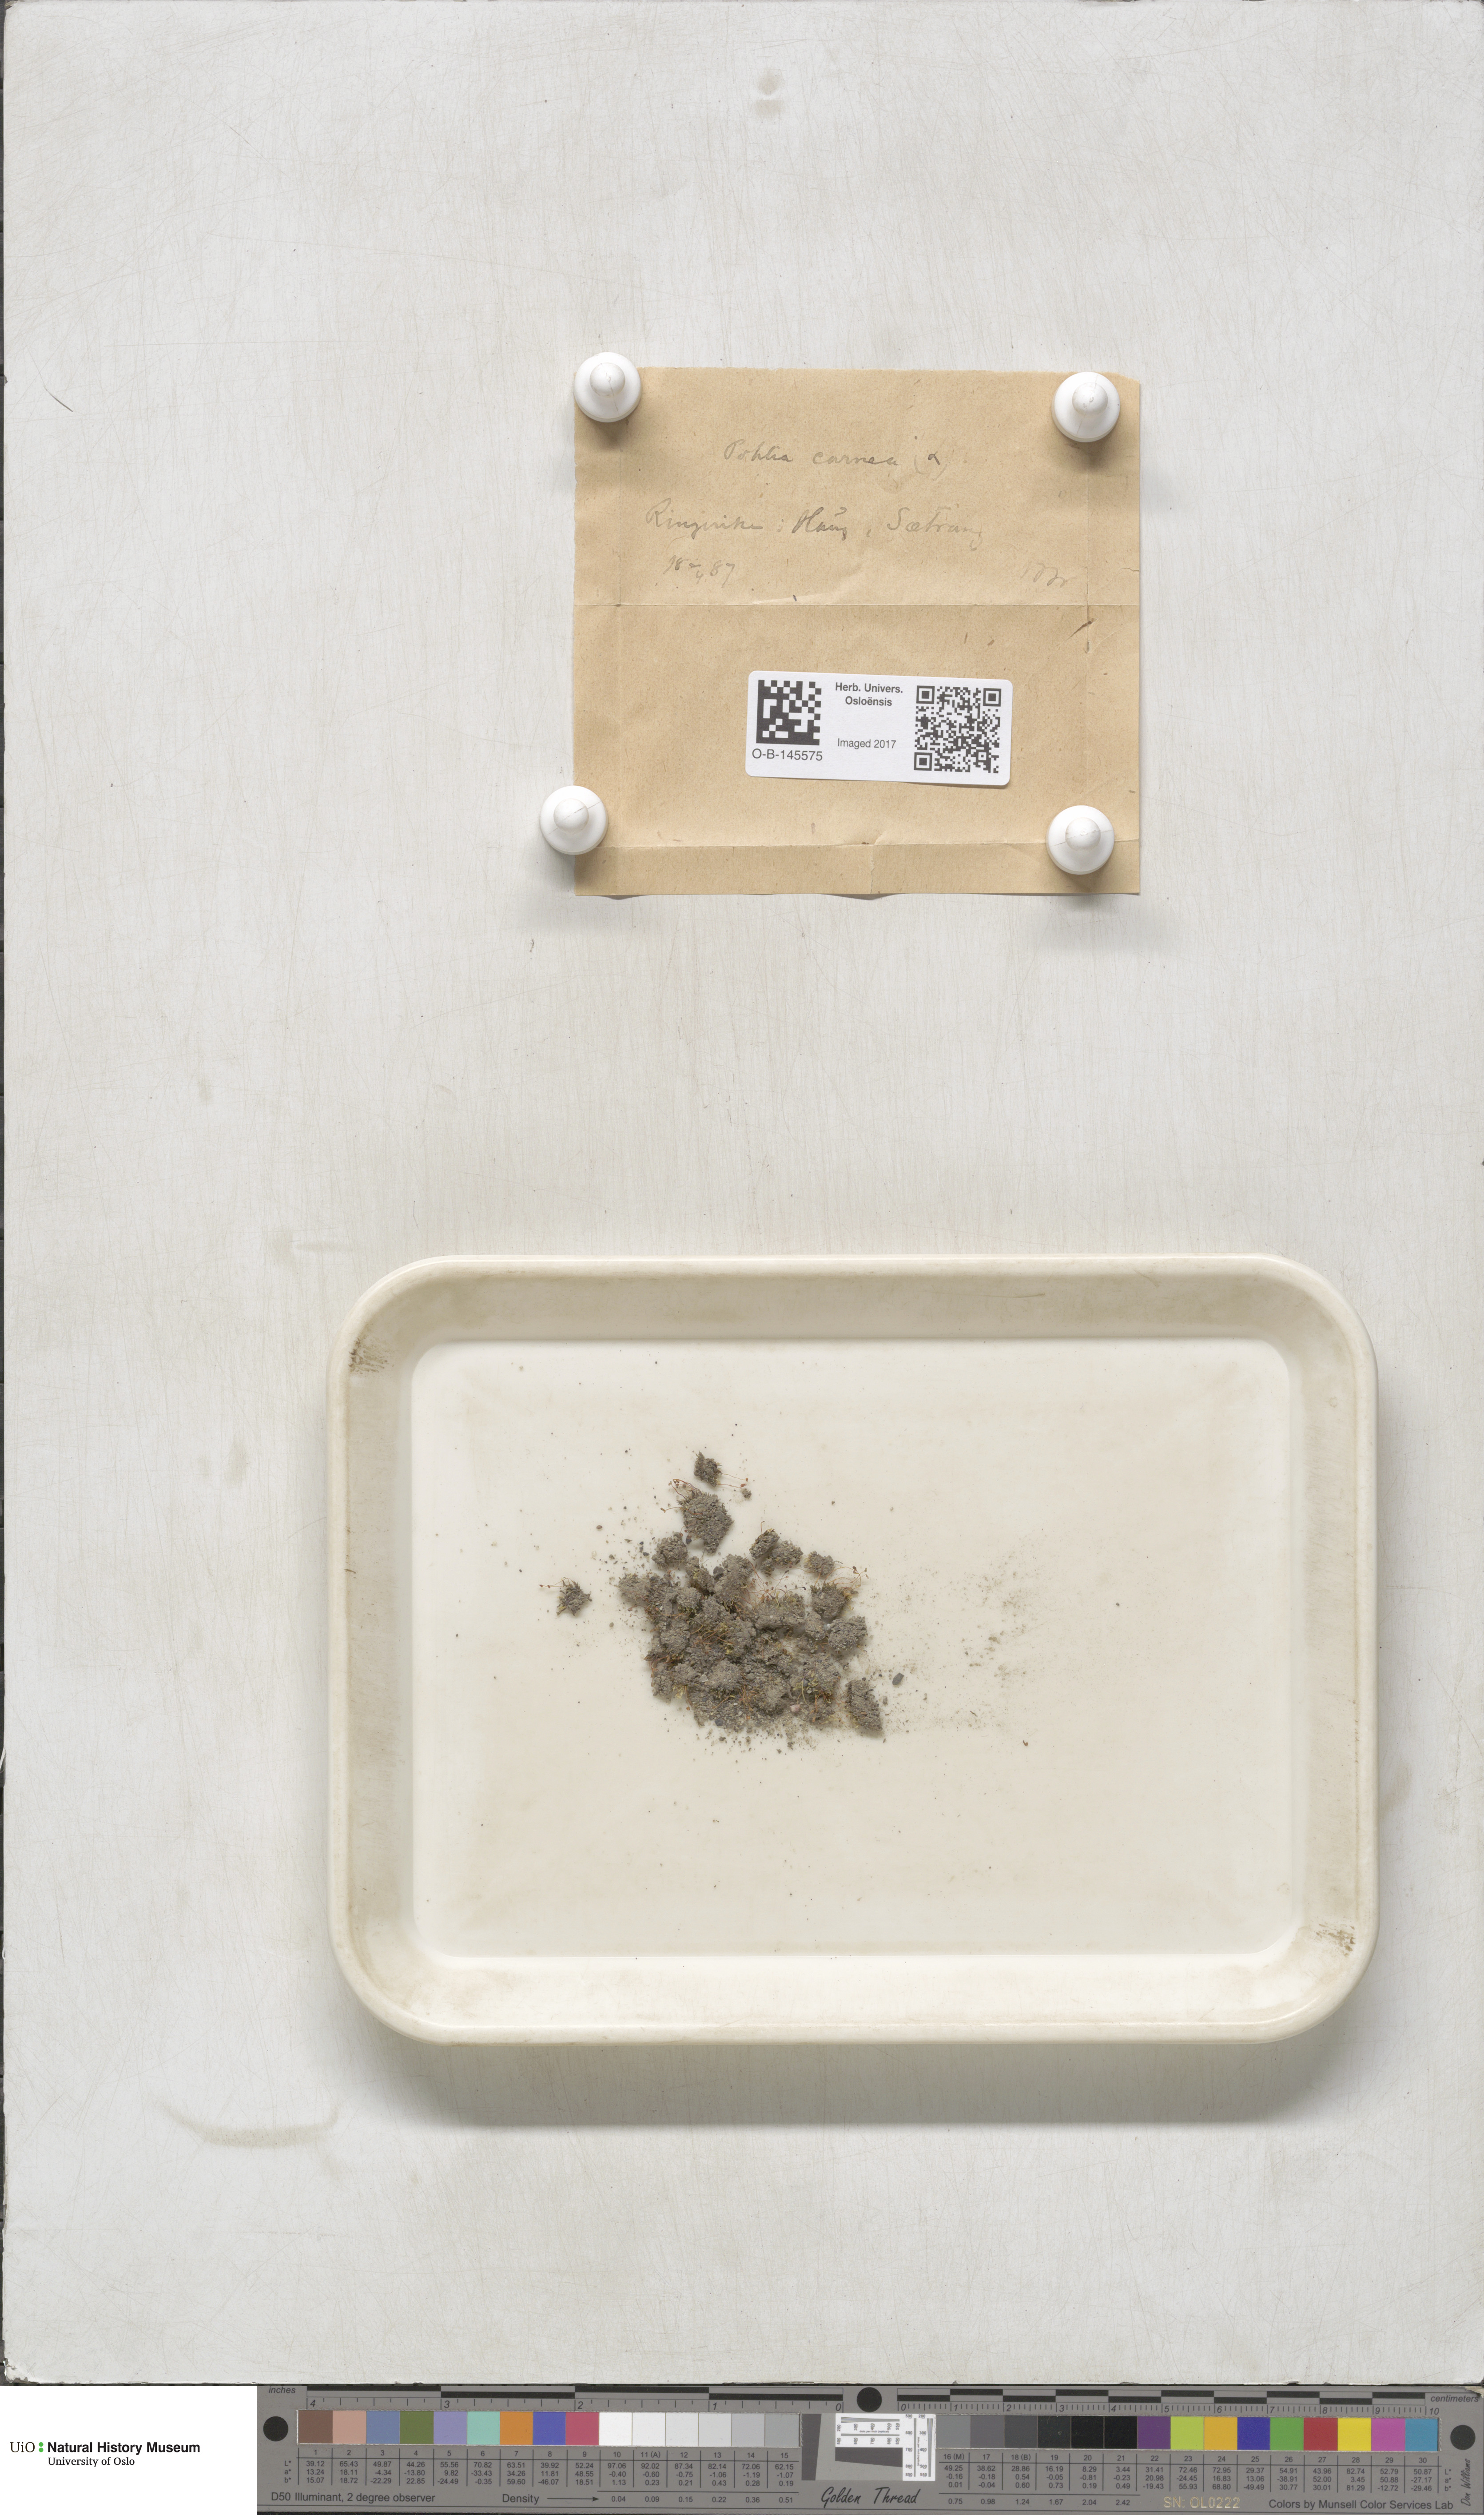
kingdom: Plantae
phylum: Bryophyta
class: Bryopsida
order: Bryales
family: Mniaceae
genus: Pohlia
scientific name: Pohlia melanodon
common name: Black-toothed nodding moss
